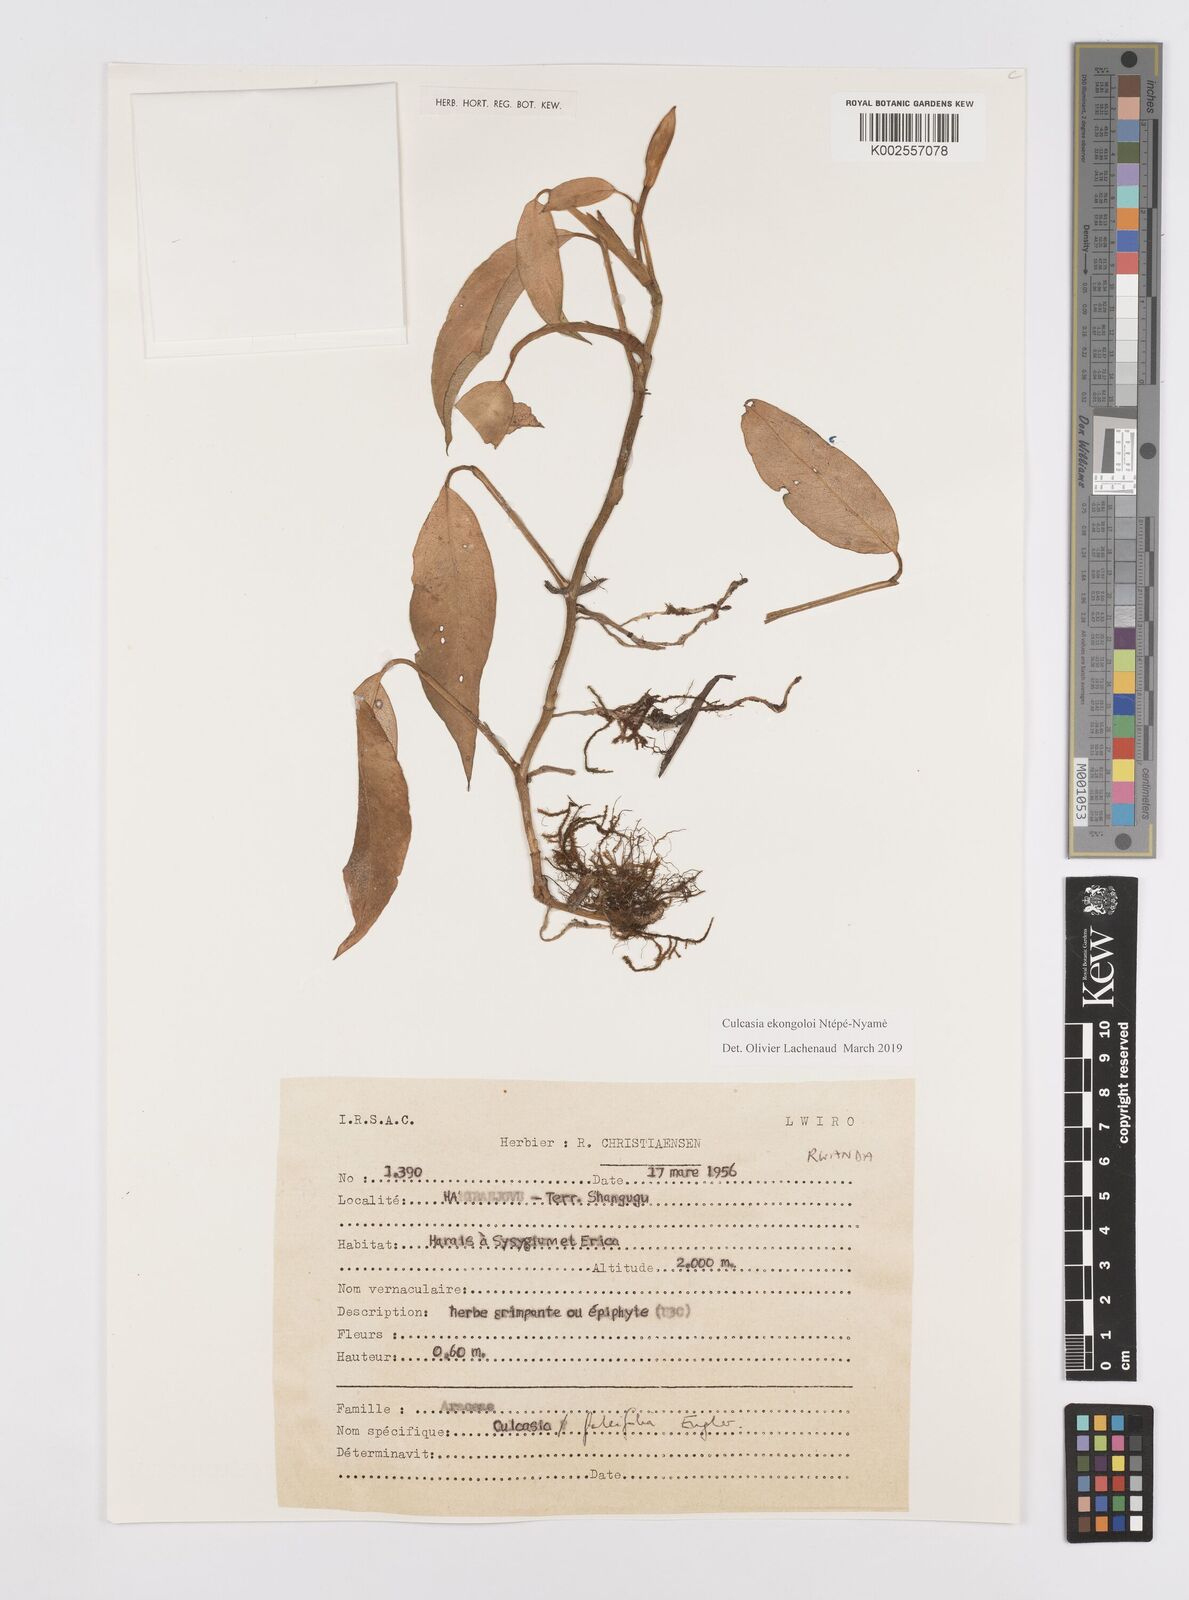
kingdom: Plantae
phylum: Tracheophyta
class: Liliopsida
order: Alismatales
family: Araceae
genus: Culcasia
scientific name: Culcasia ekongoloi
